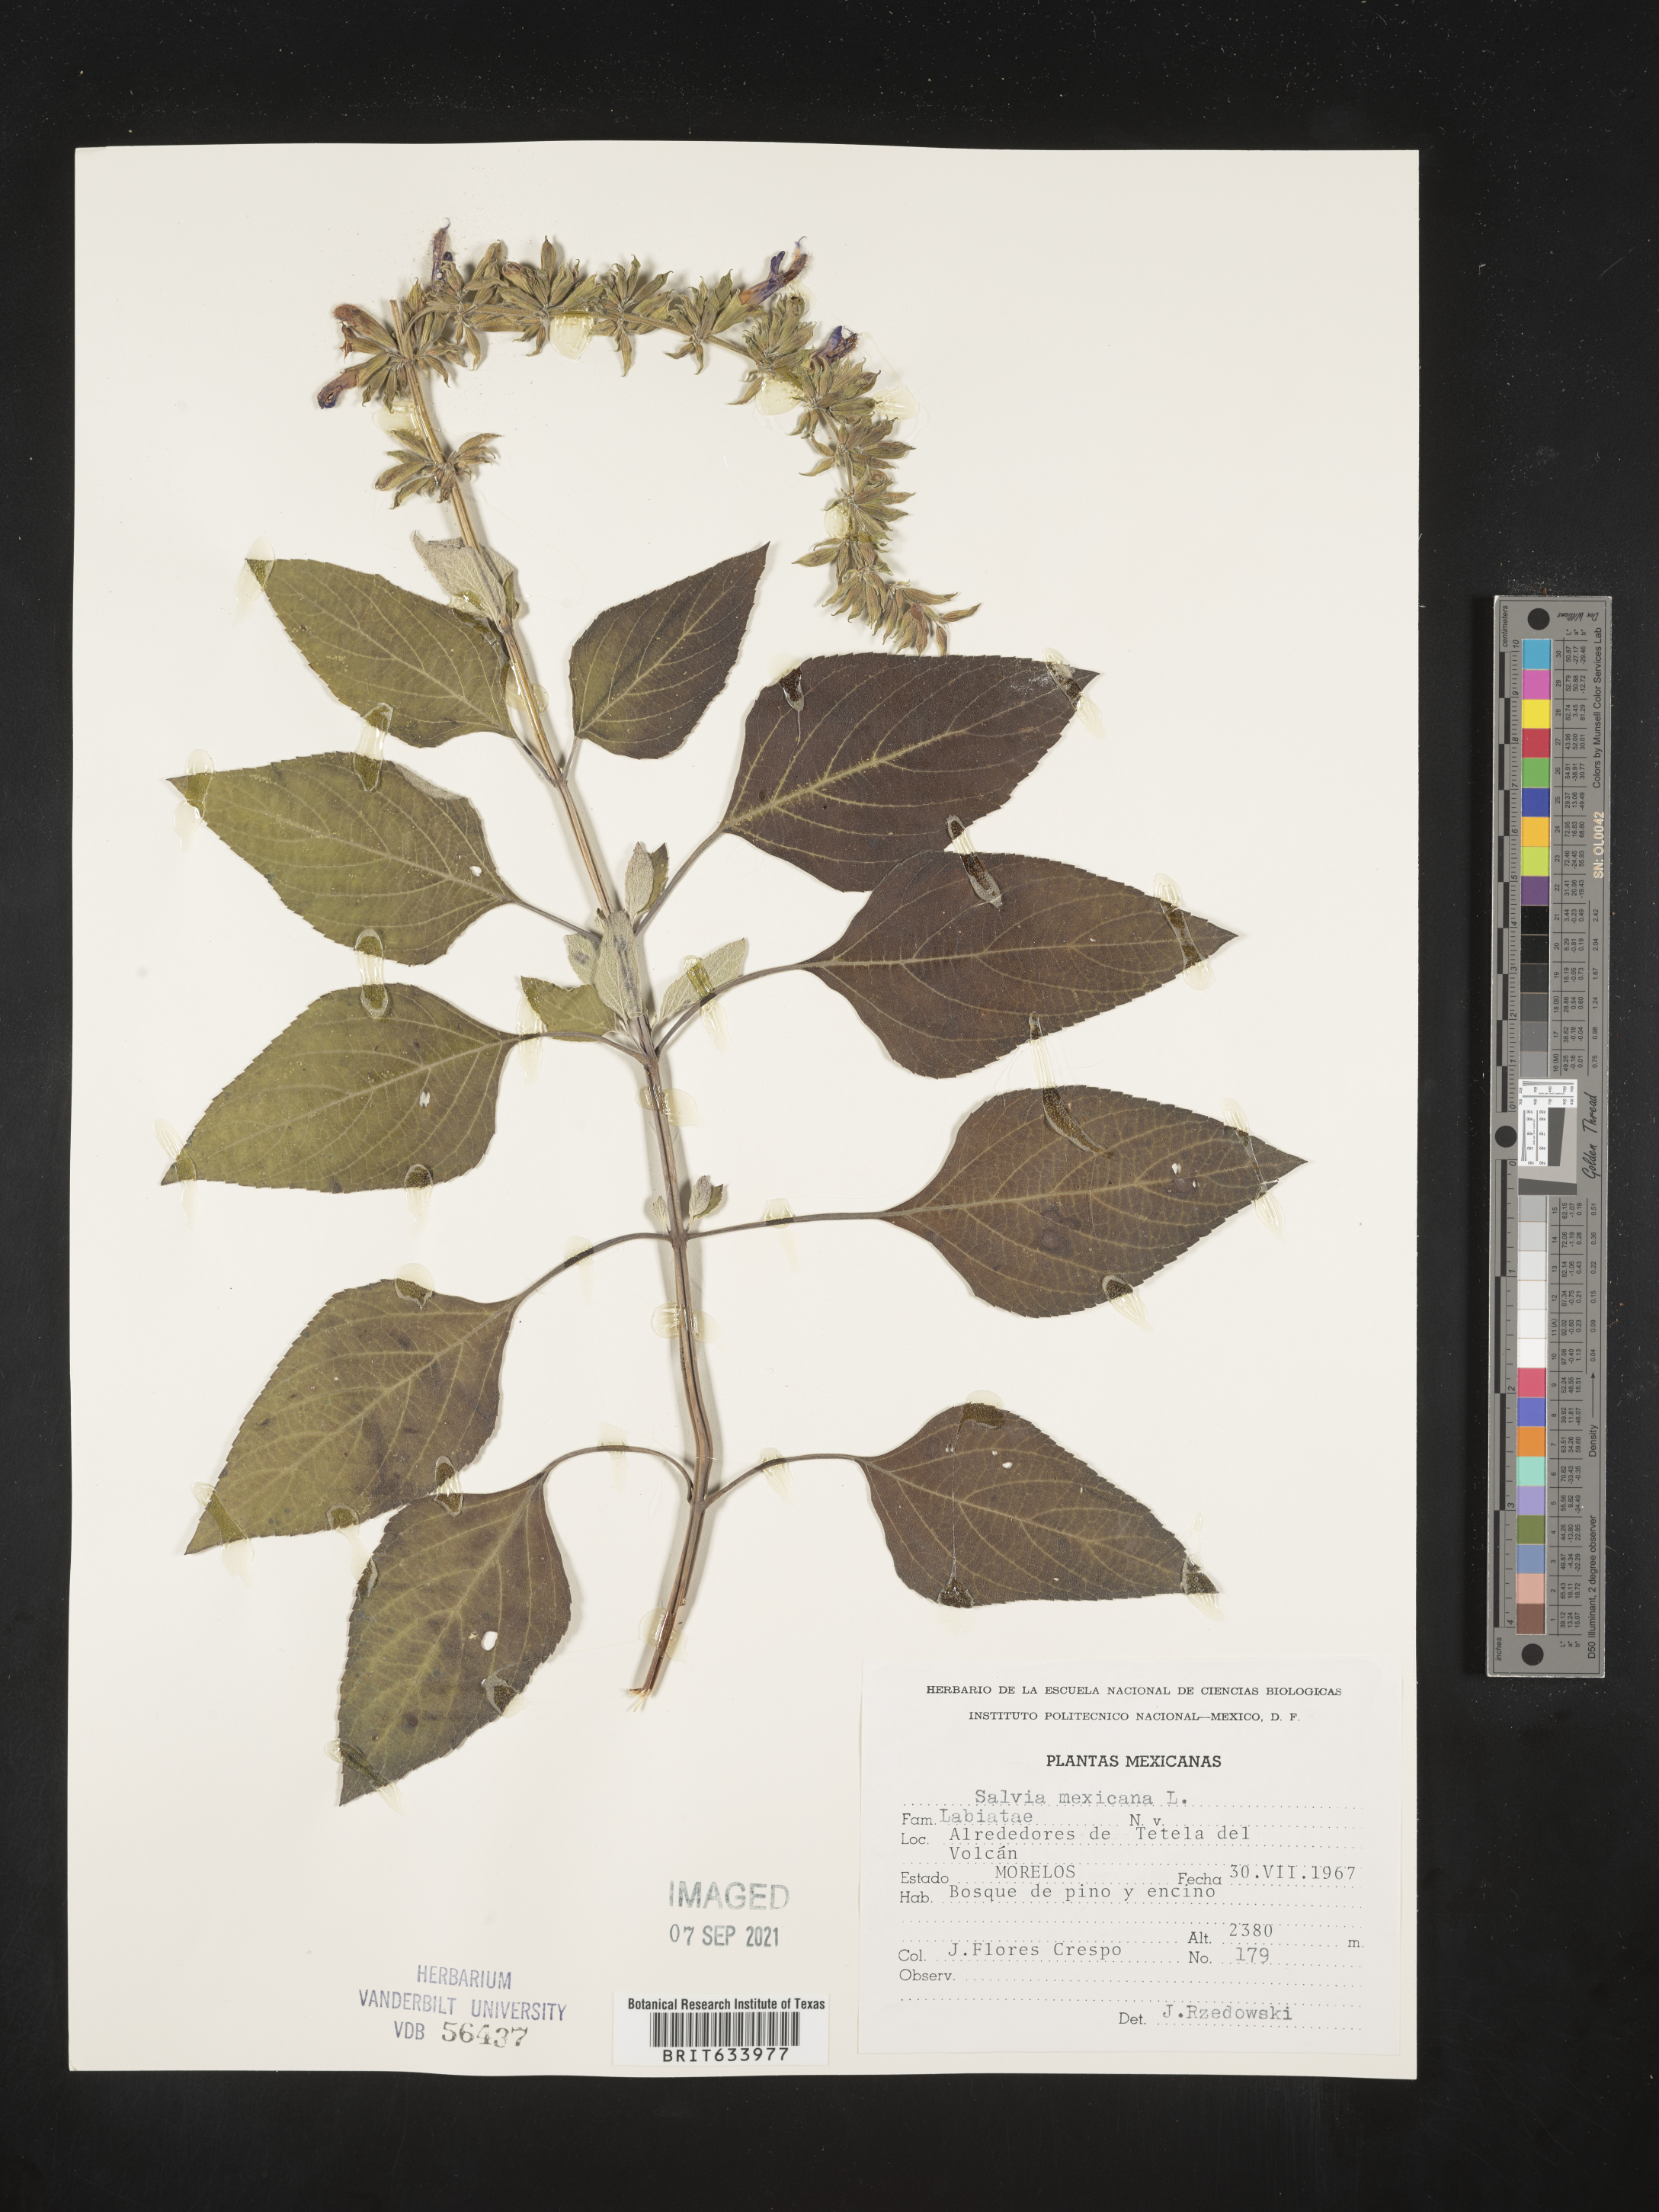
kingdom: Plantae
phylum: Tracheophyta
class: Magnoliopsida
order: Lamiales
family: Lamiaceae
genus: Salvia
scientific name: Salvia
